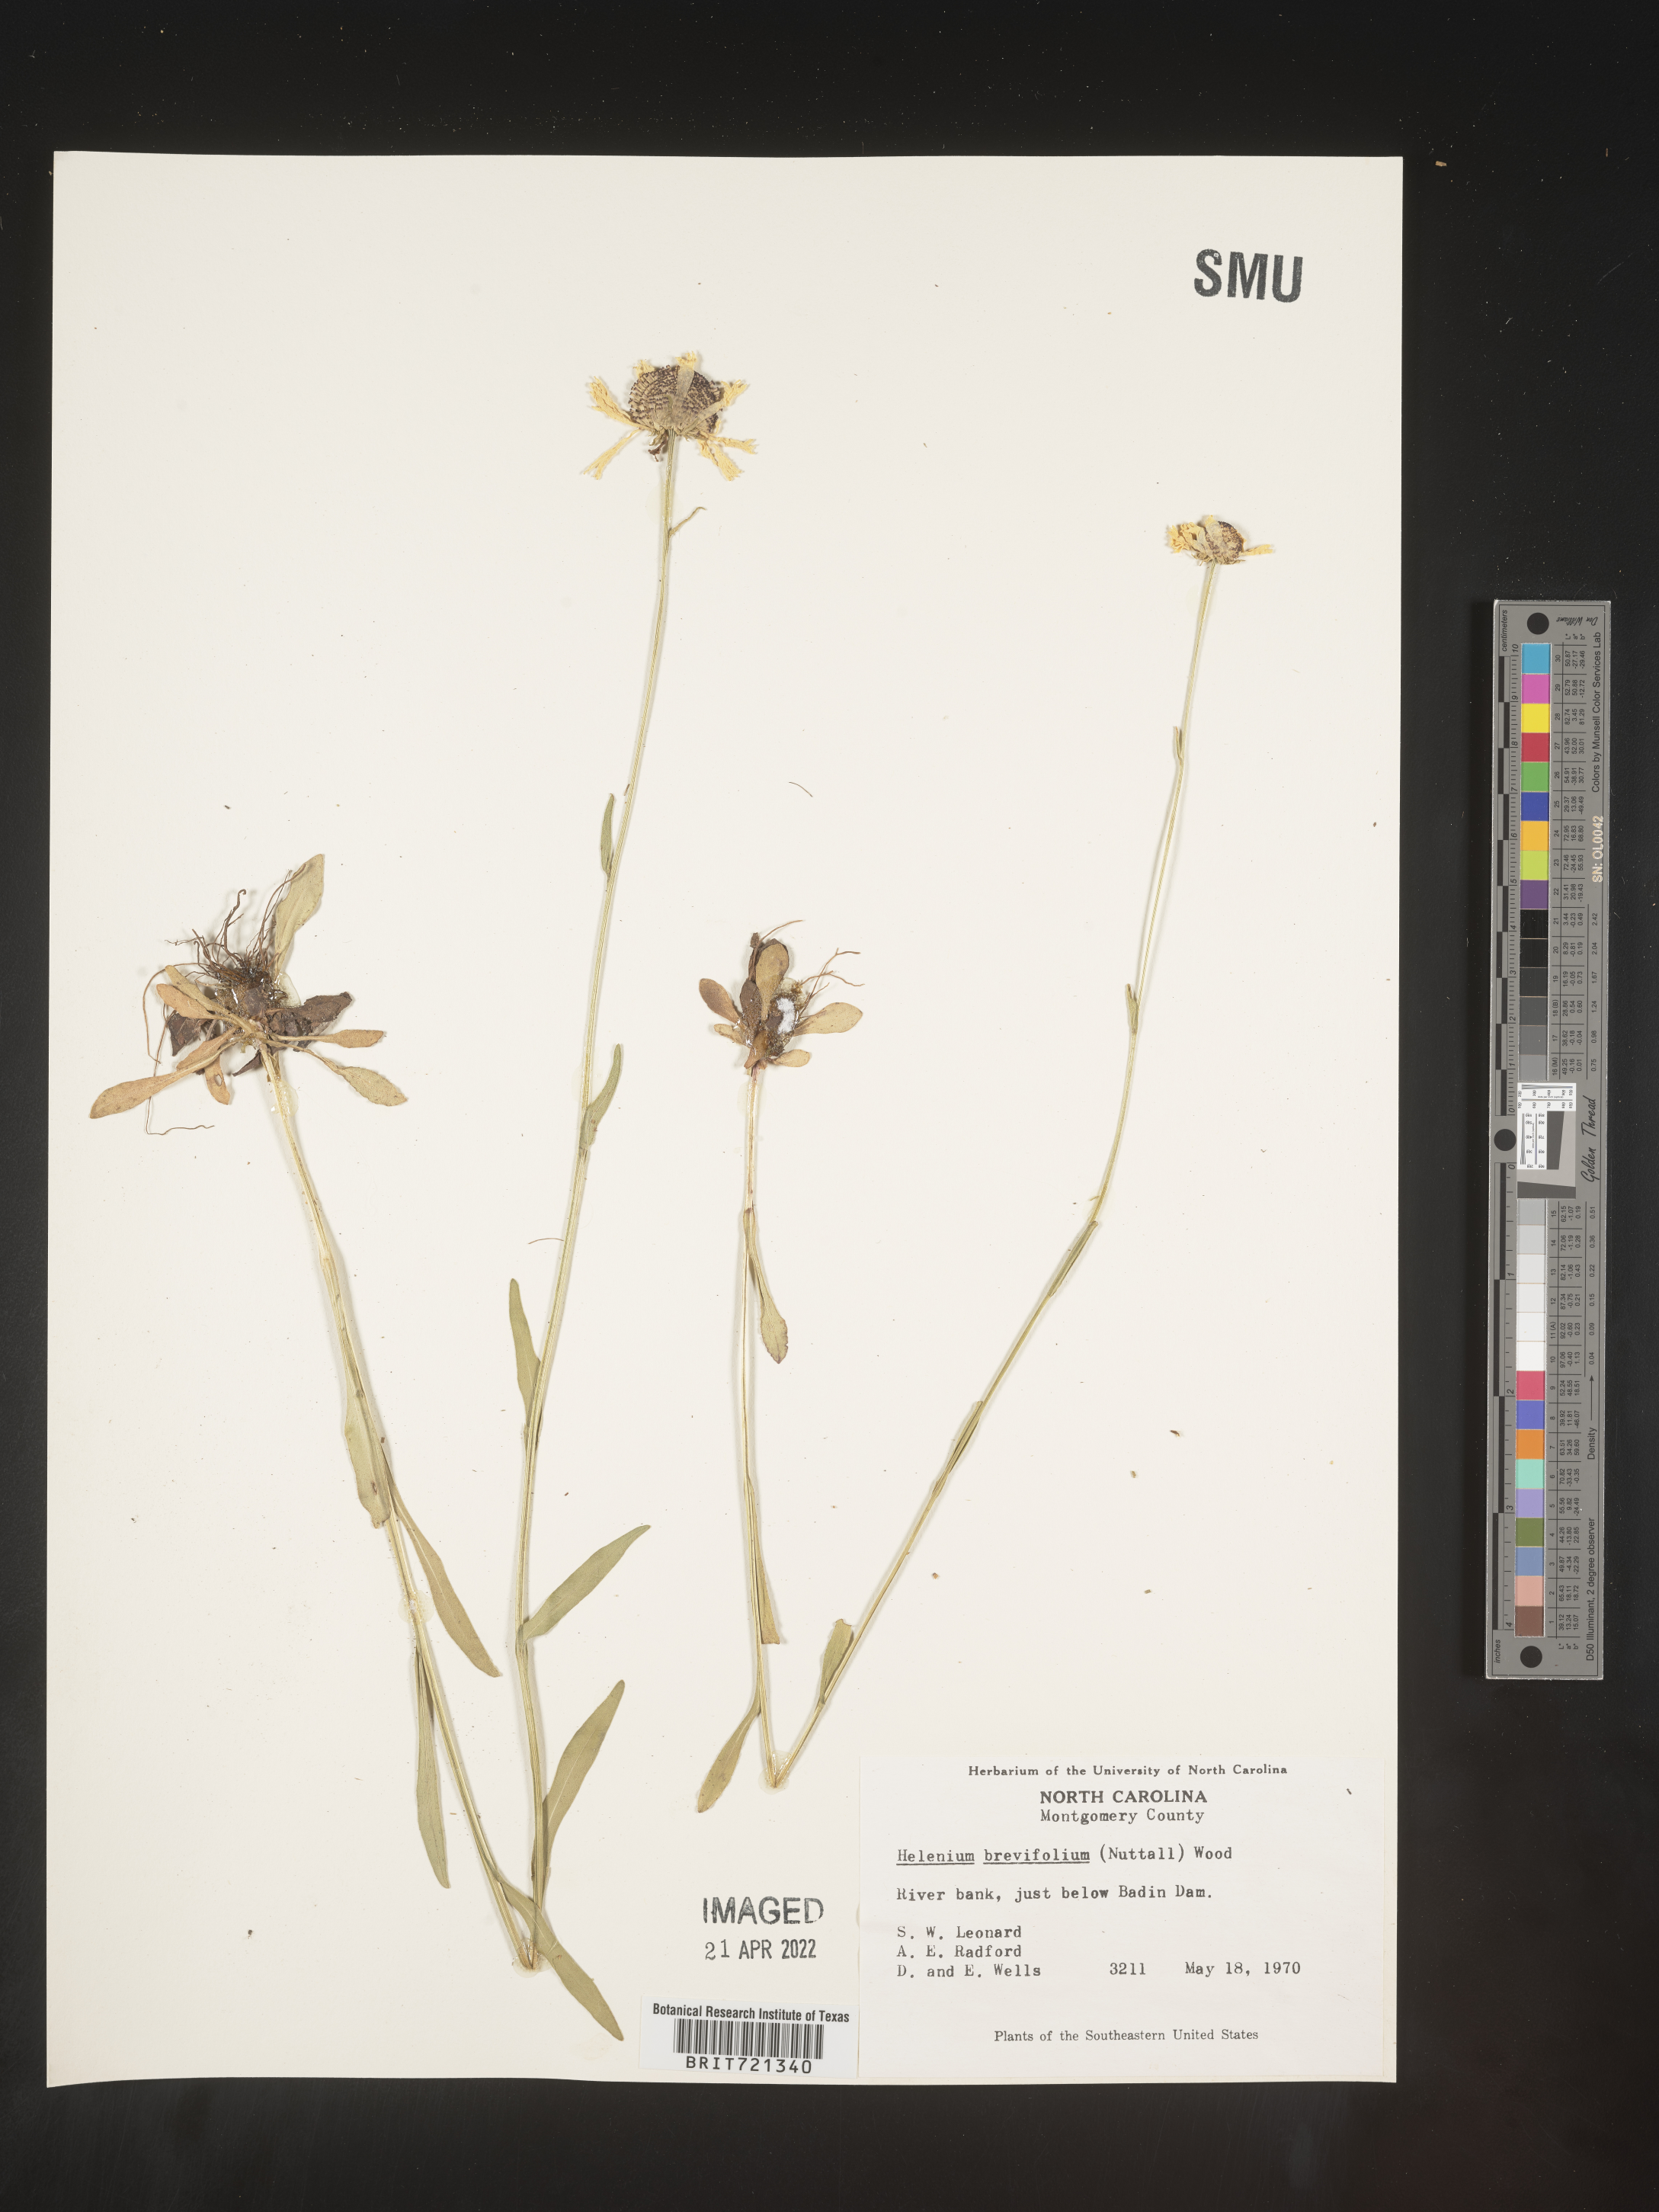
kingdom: Plantae
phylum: Tracheophyta
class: Magnoliopsida
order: Asterales
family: Asteraceae
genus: Helenium
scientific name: Helenium
